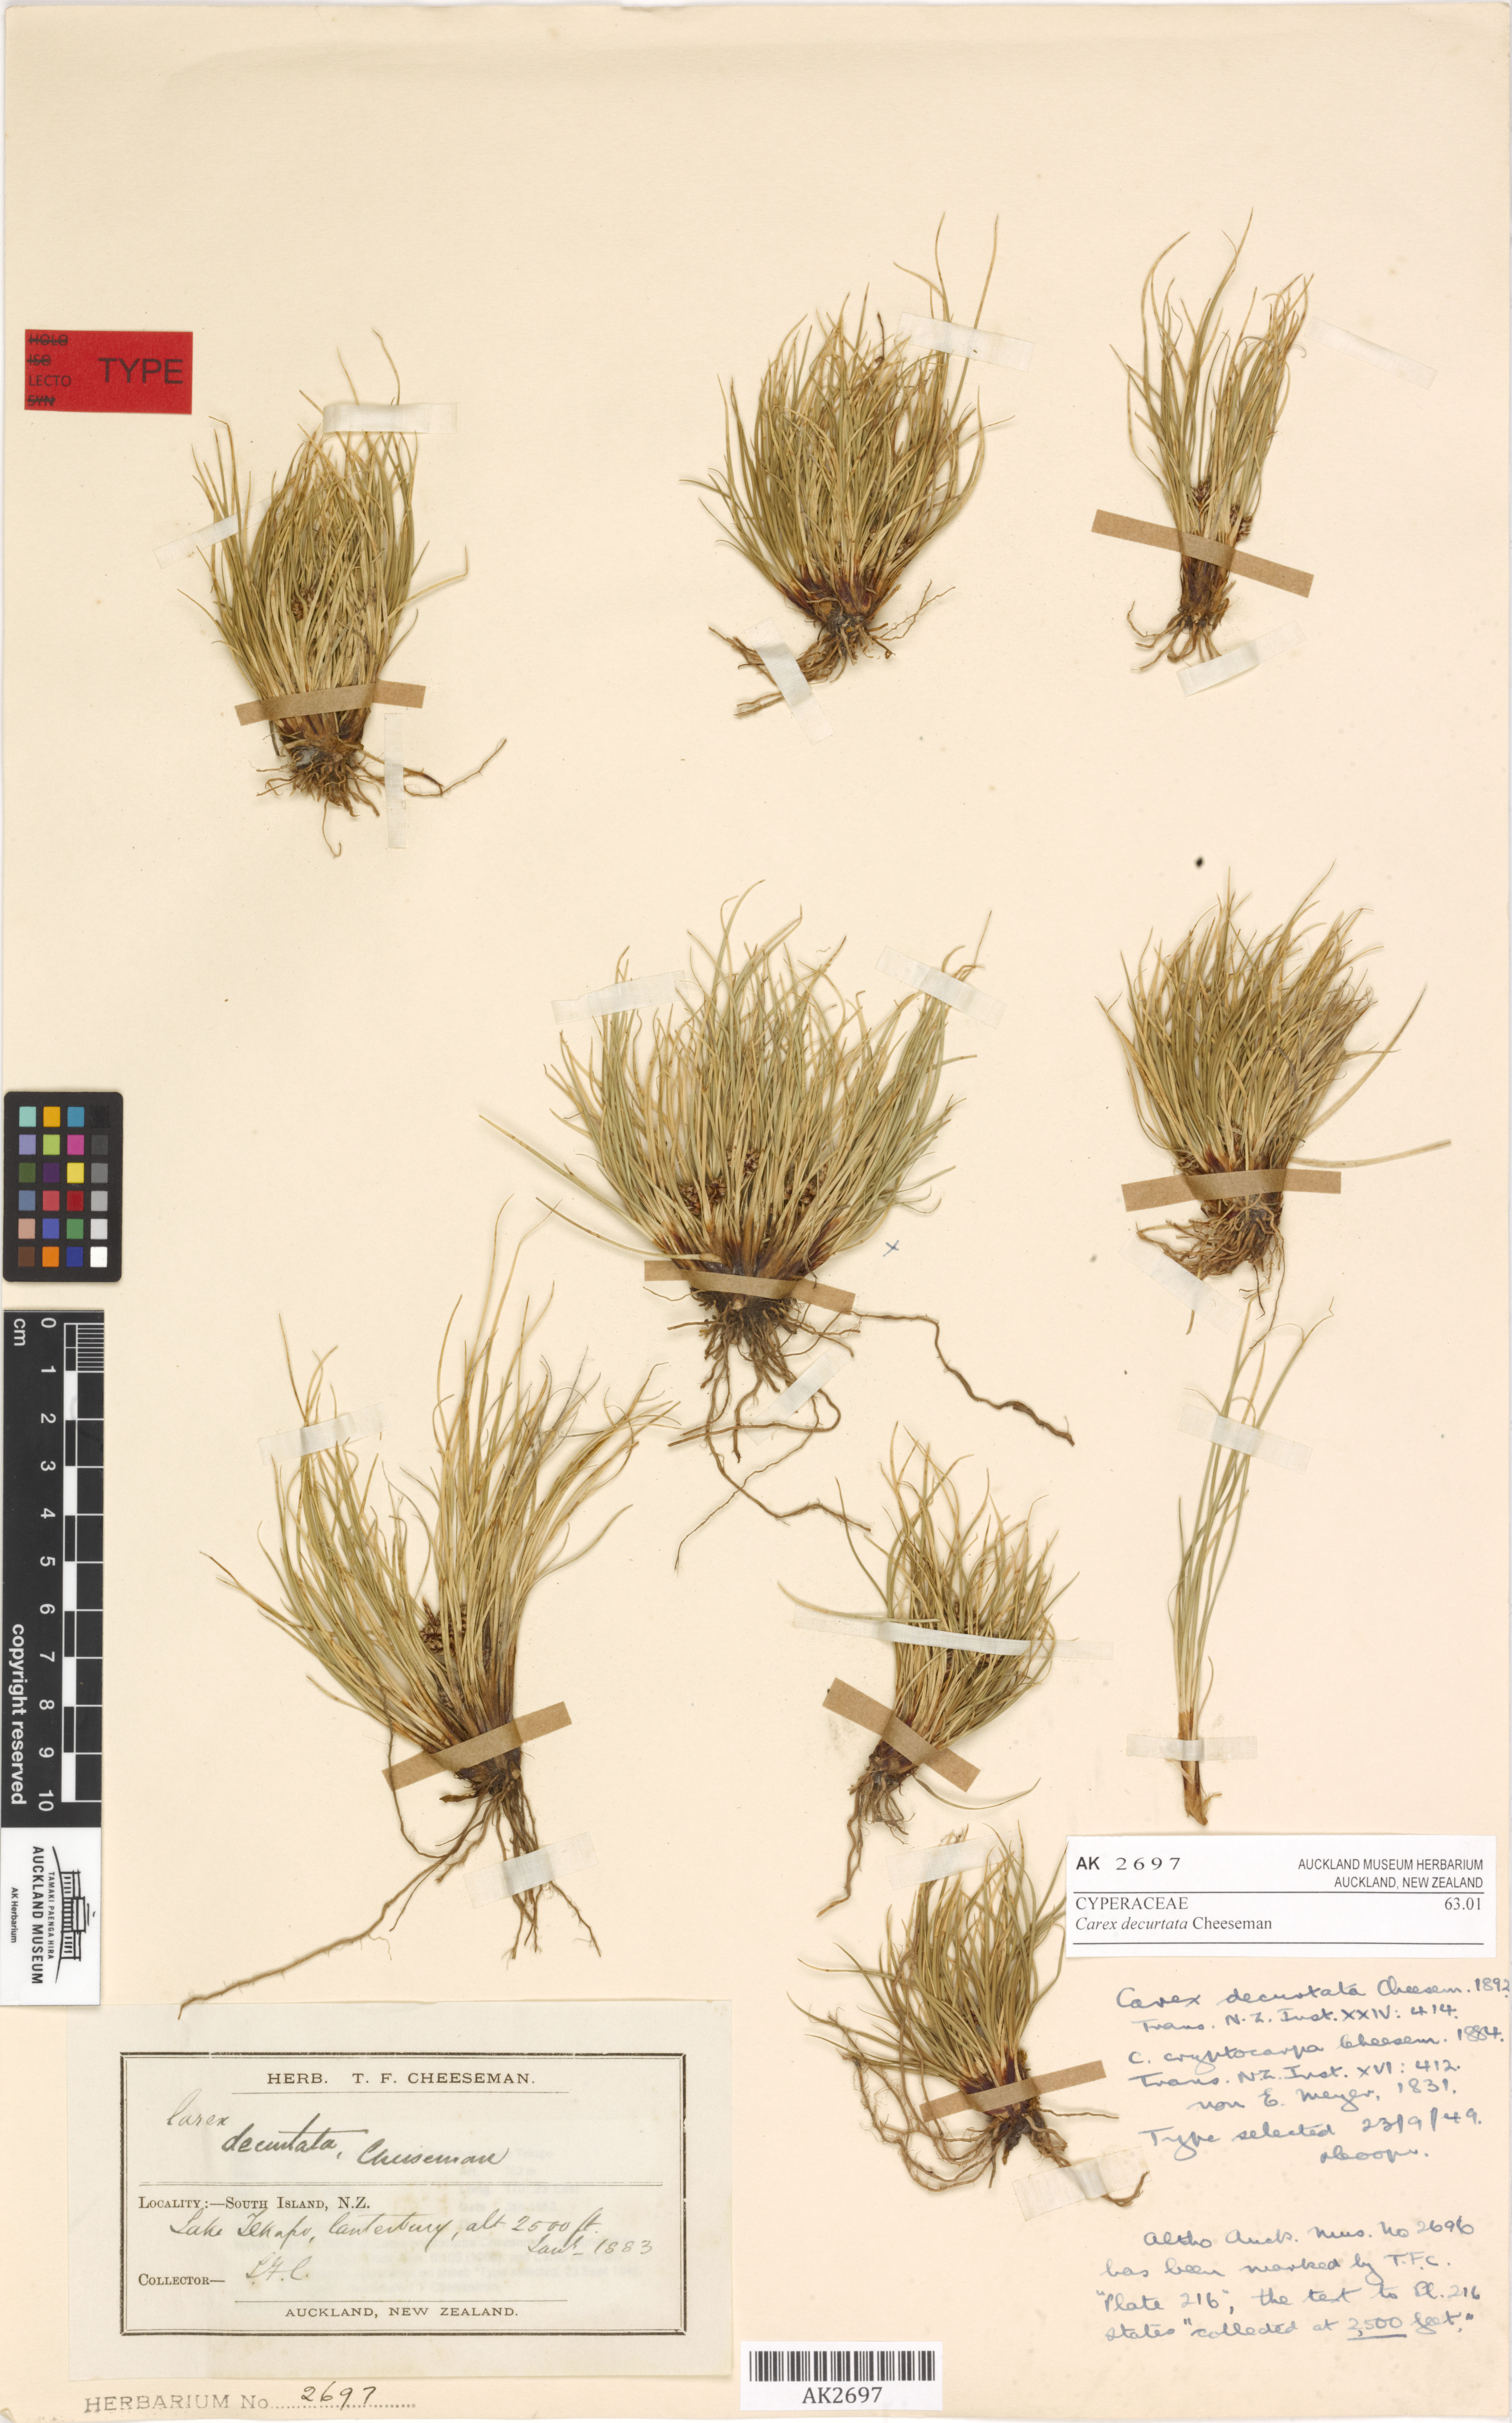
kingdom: Plantae
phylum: Tracheophyta
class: Liliopsida
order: Poales
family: Cyperaceae
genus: Carex
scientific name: Carex decurtata
